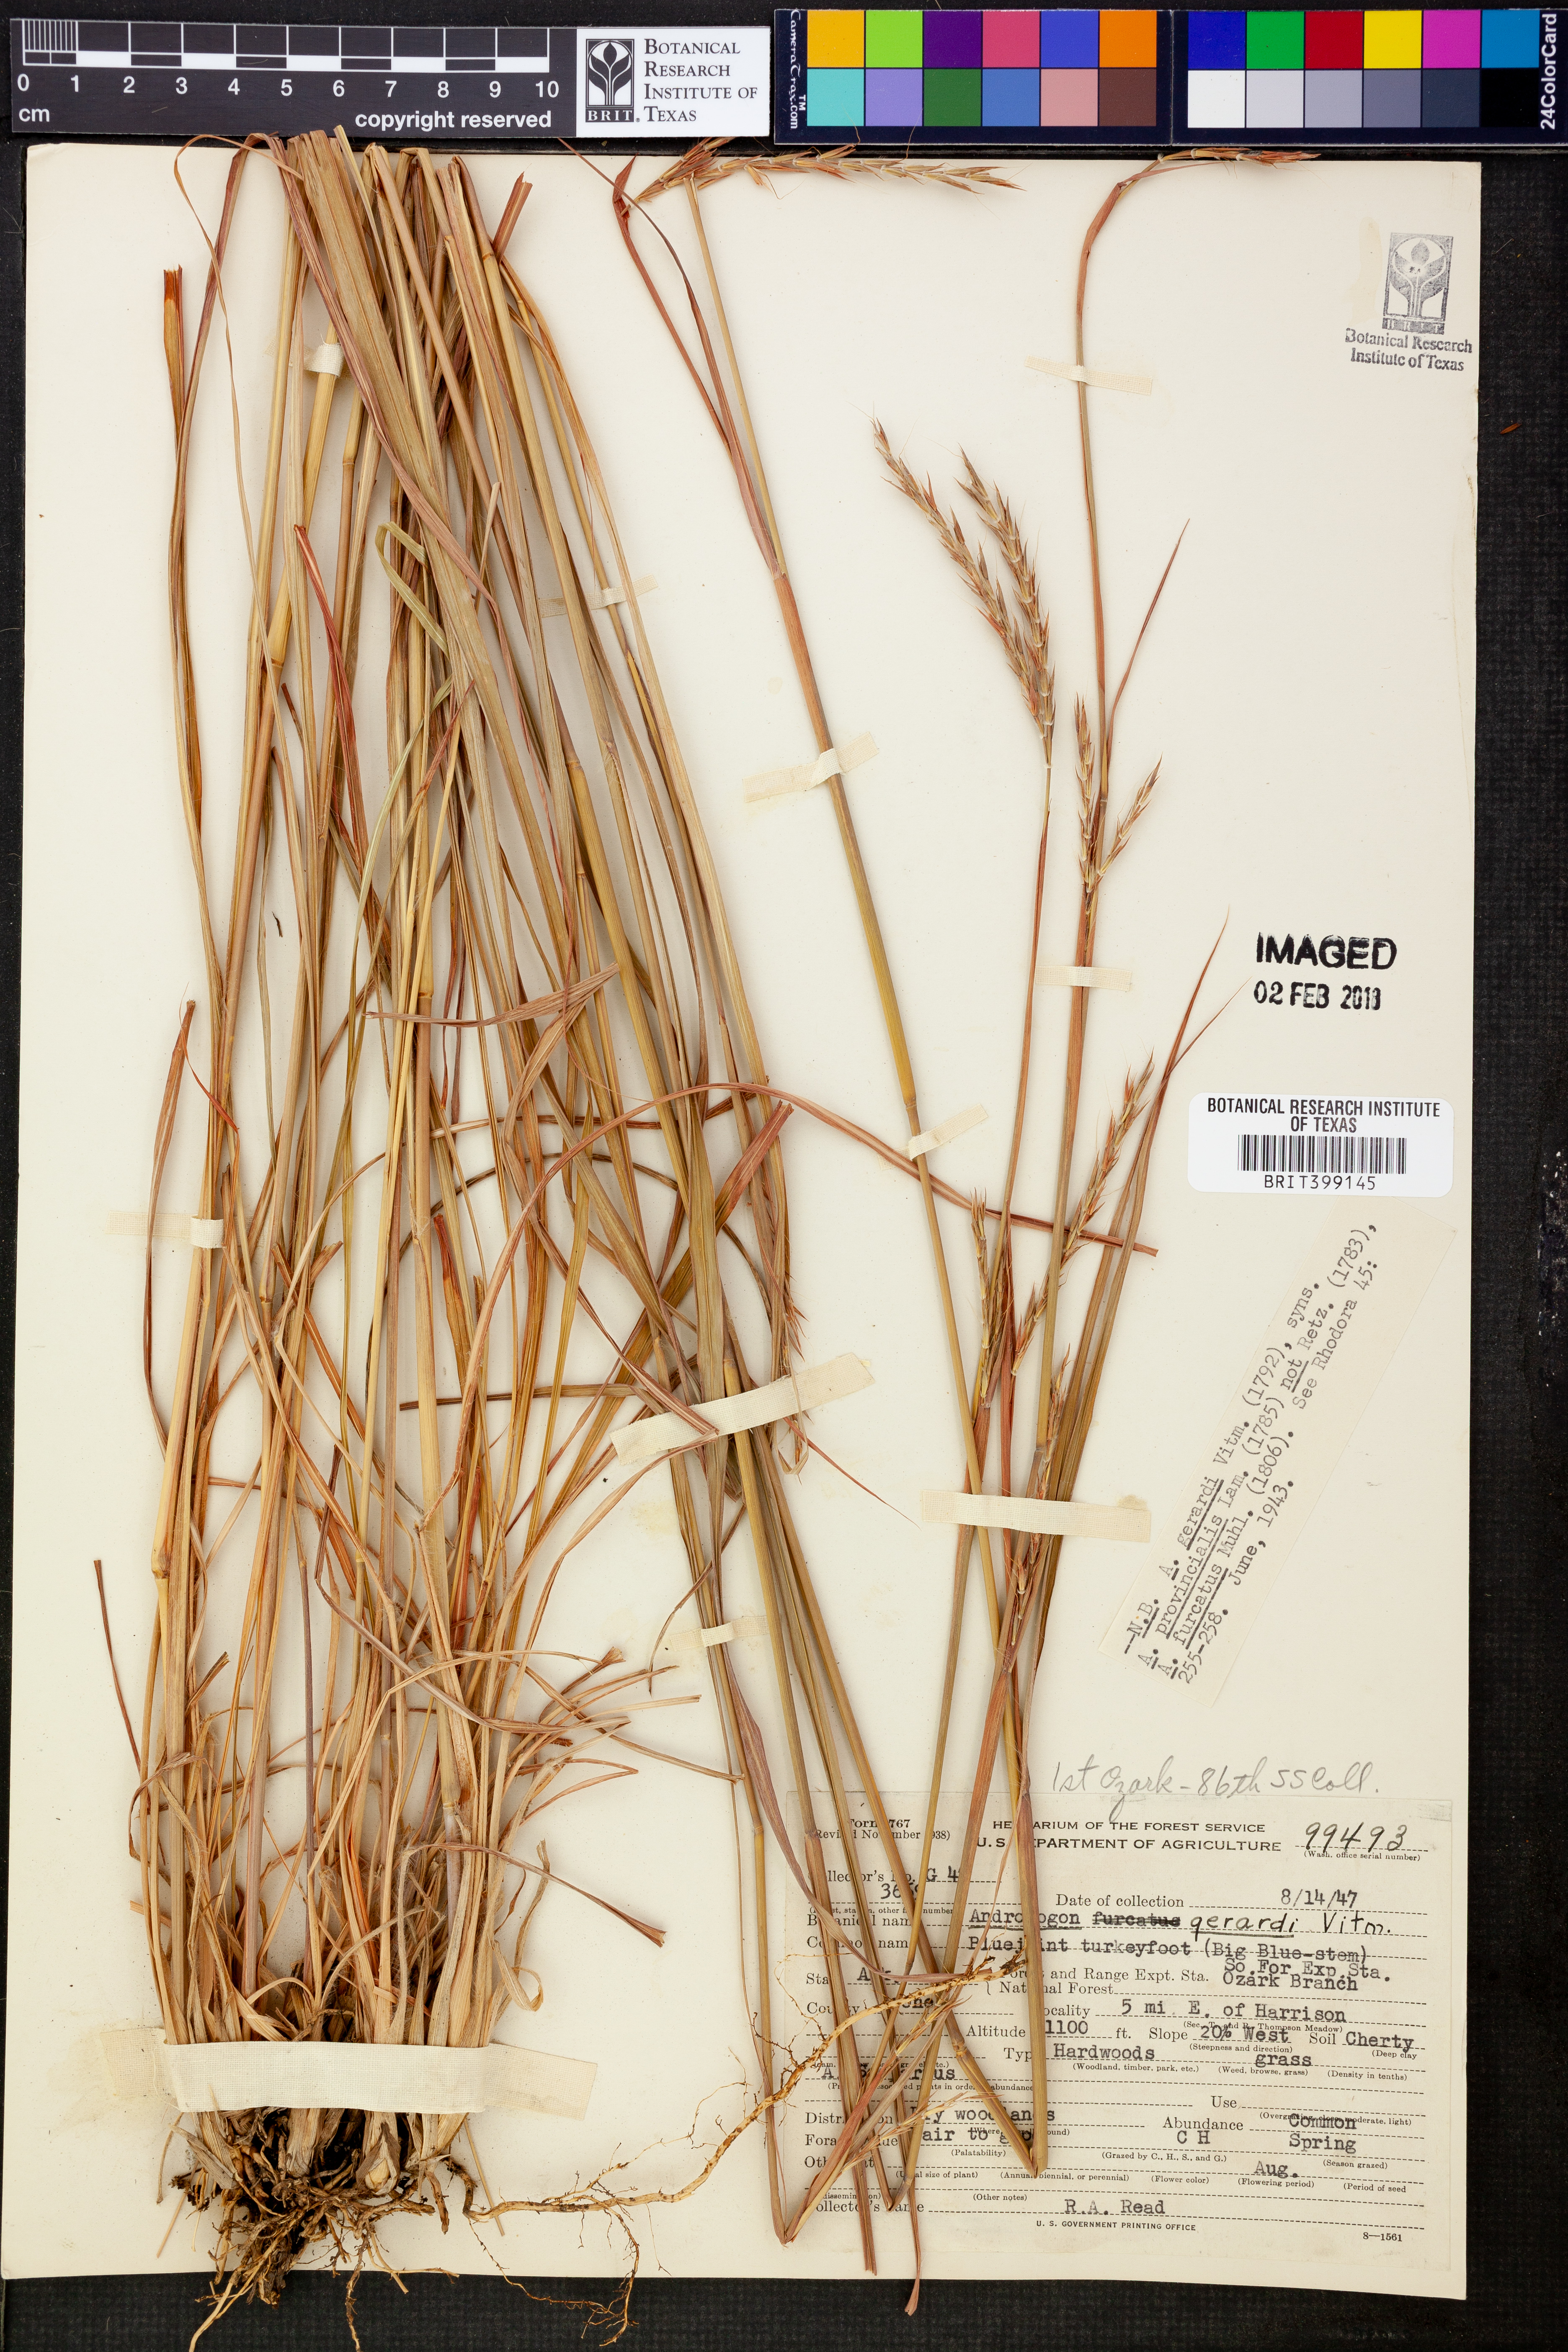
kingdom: Plantae
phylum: Tracheophyta
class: Liliopsida
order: Poales
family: Poaceae
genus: Andropogon
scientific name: Andropogon gerardi
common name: Big bluestem
